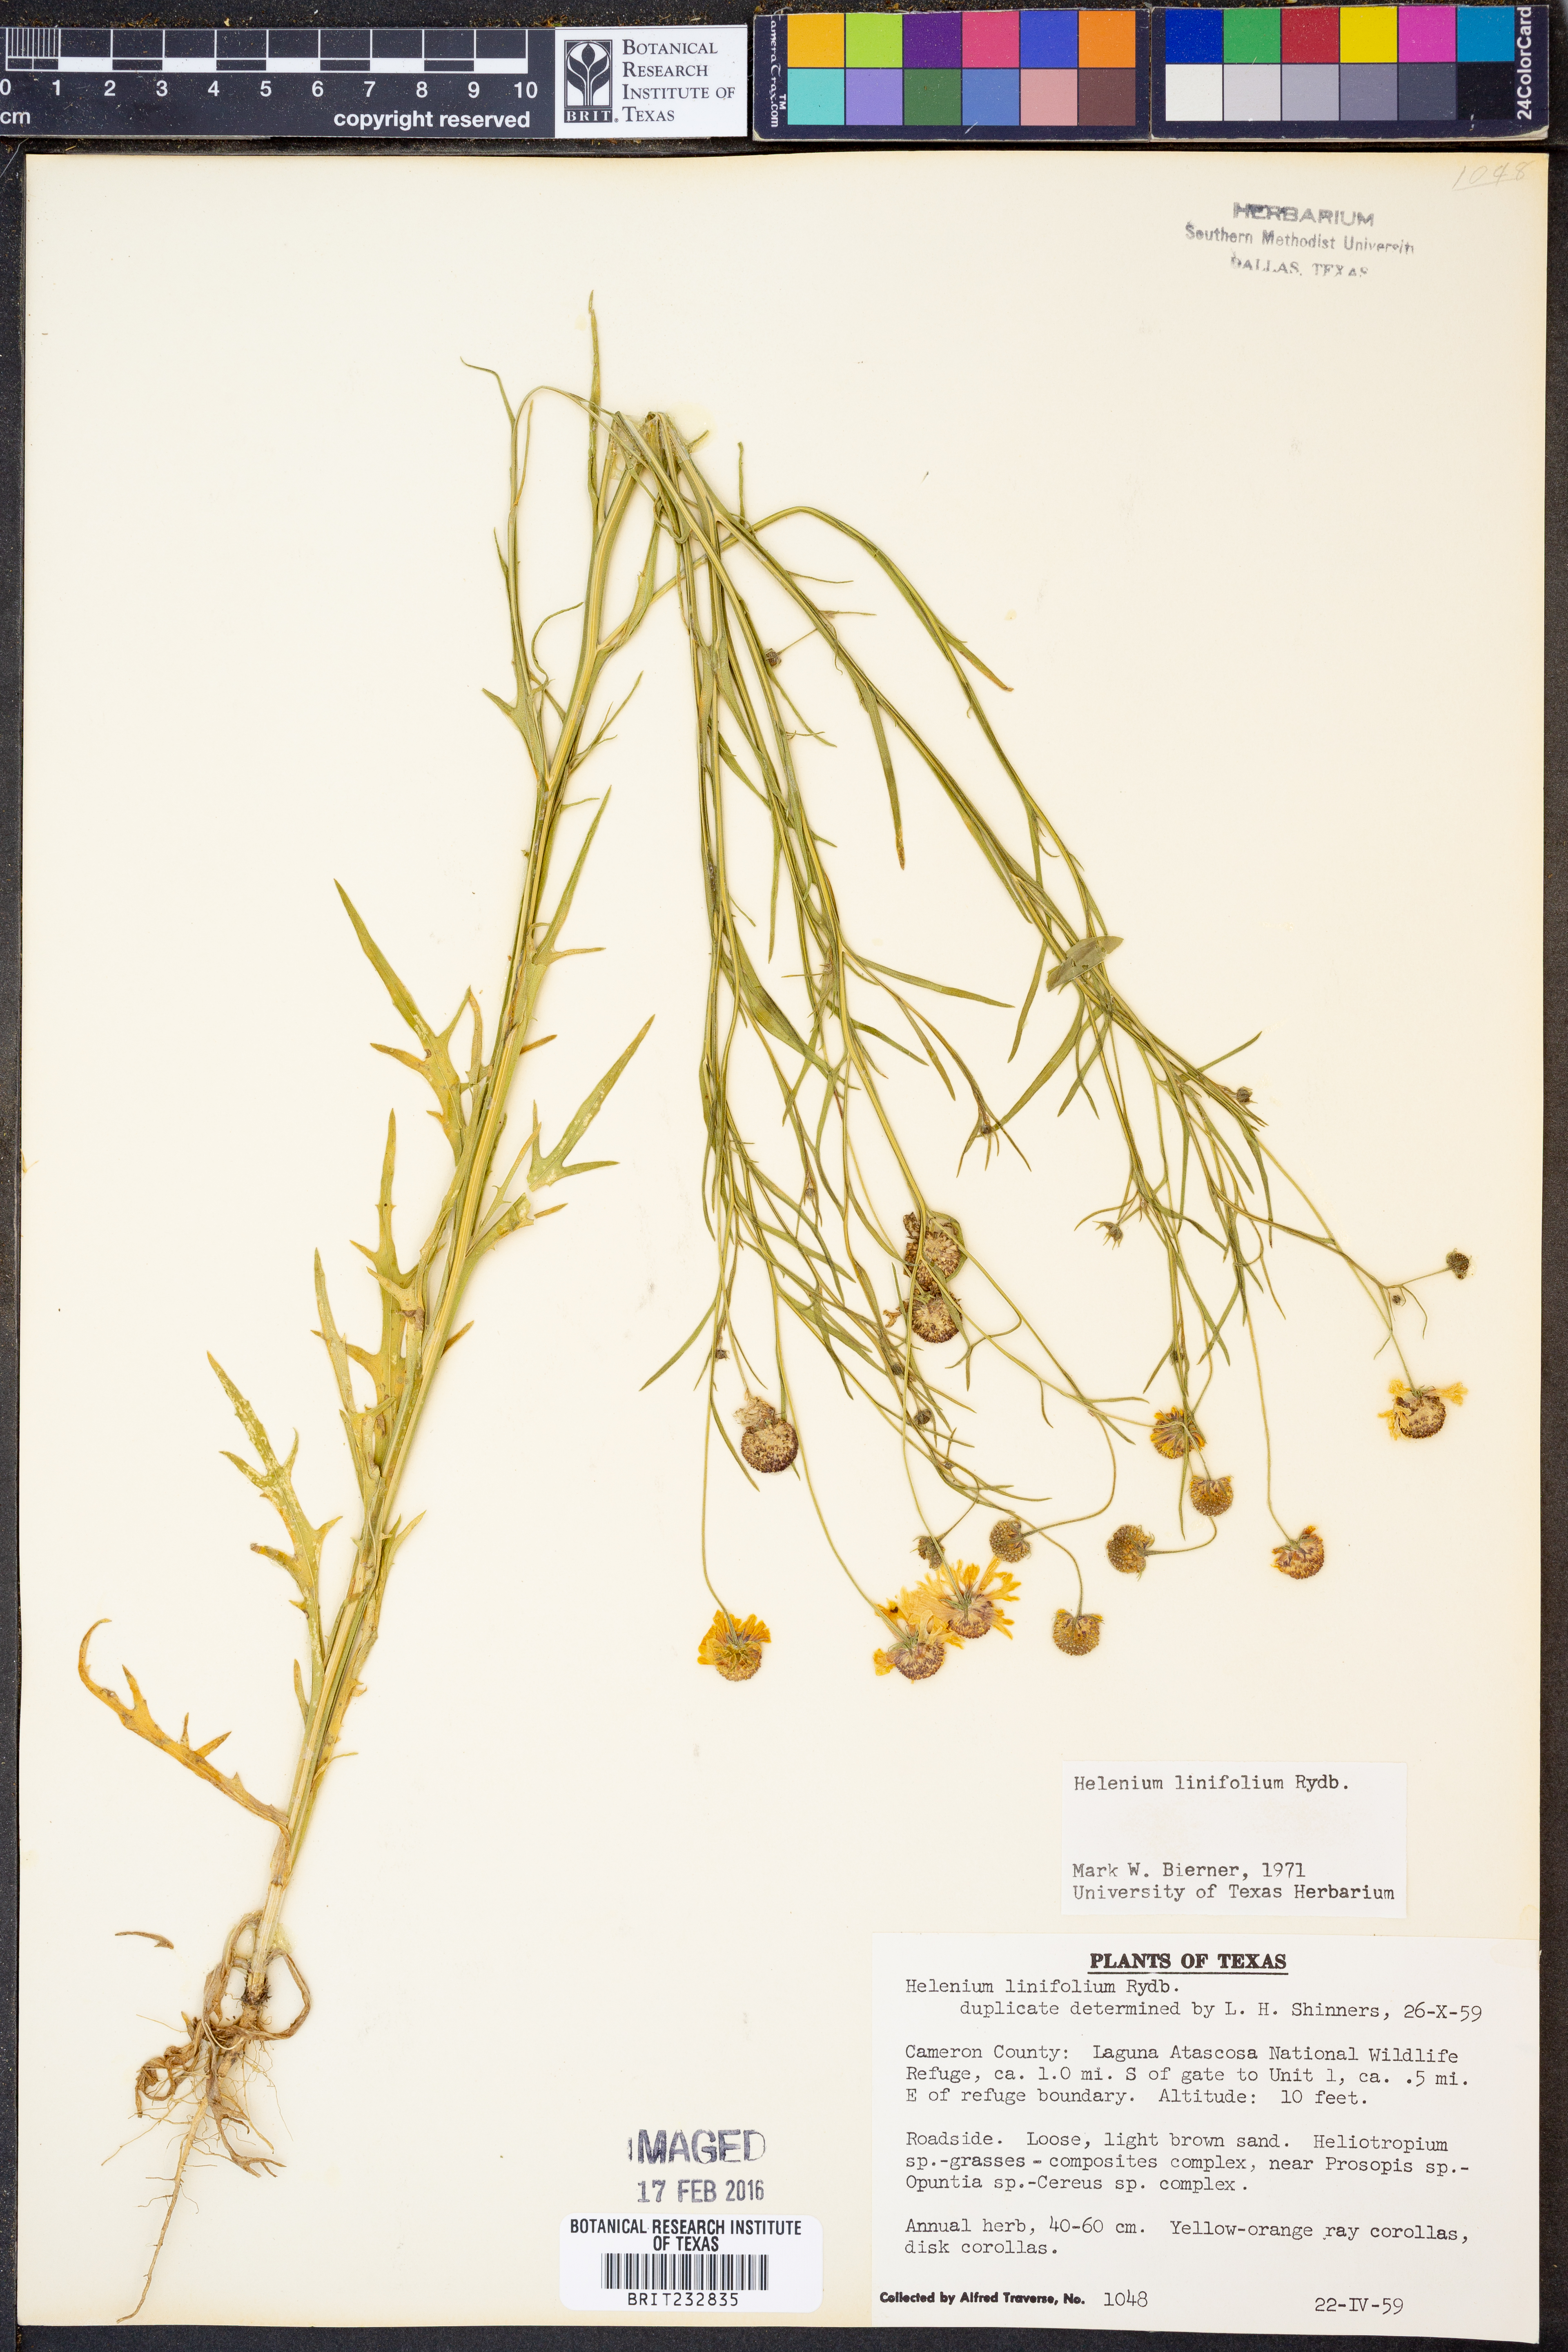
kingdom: Plantae
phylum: Tracheophyta
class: Magnoliopsida
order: Asterales
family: Asteraceae
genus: Helenium
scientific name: Helenium linifolium
